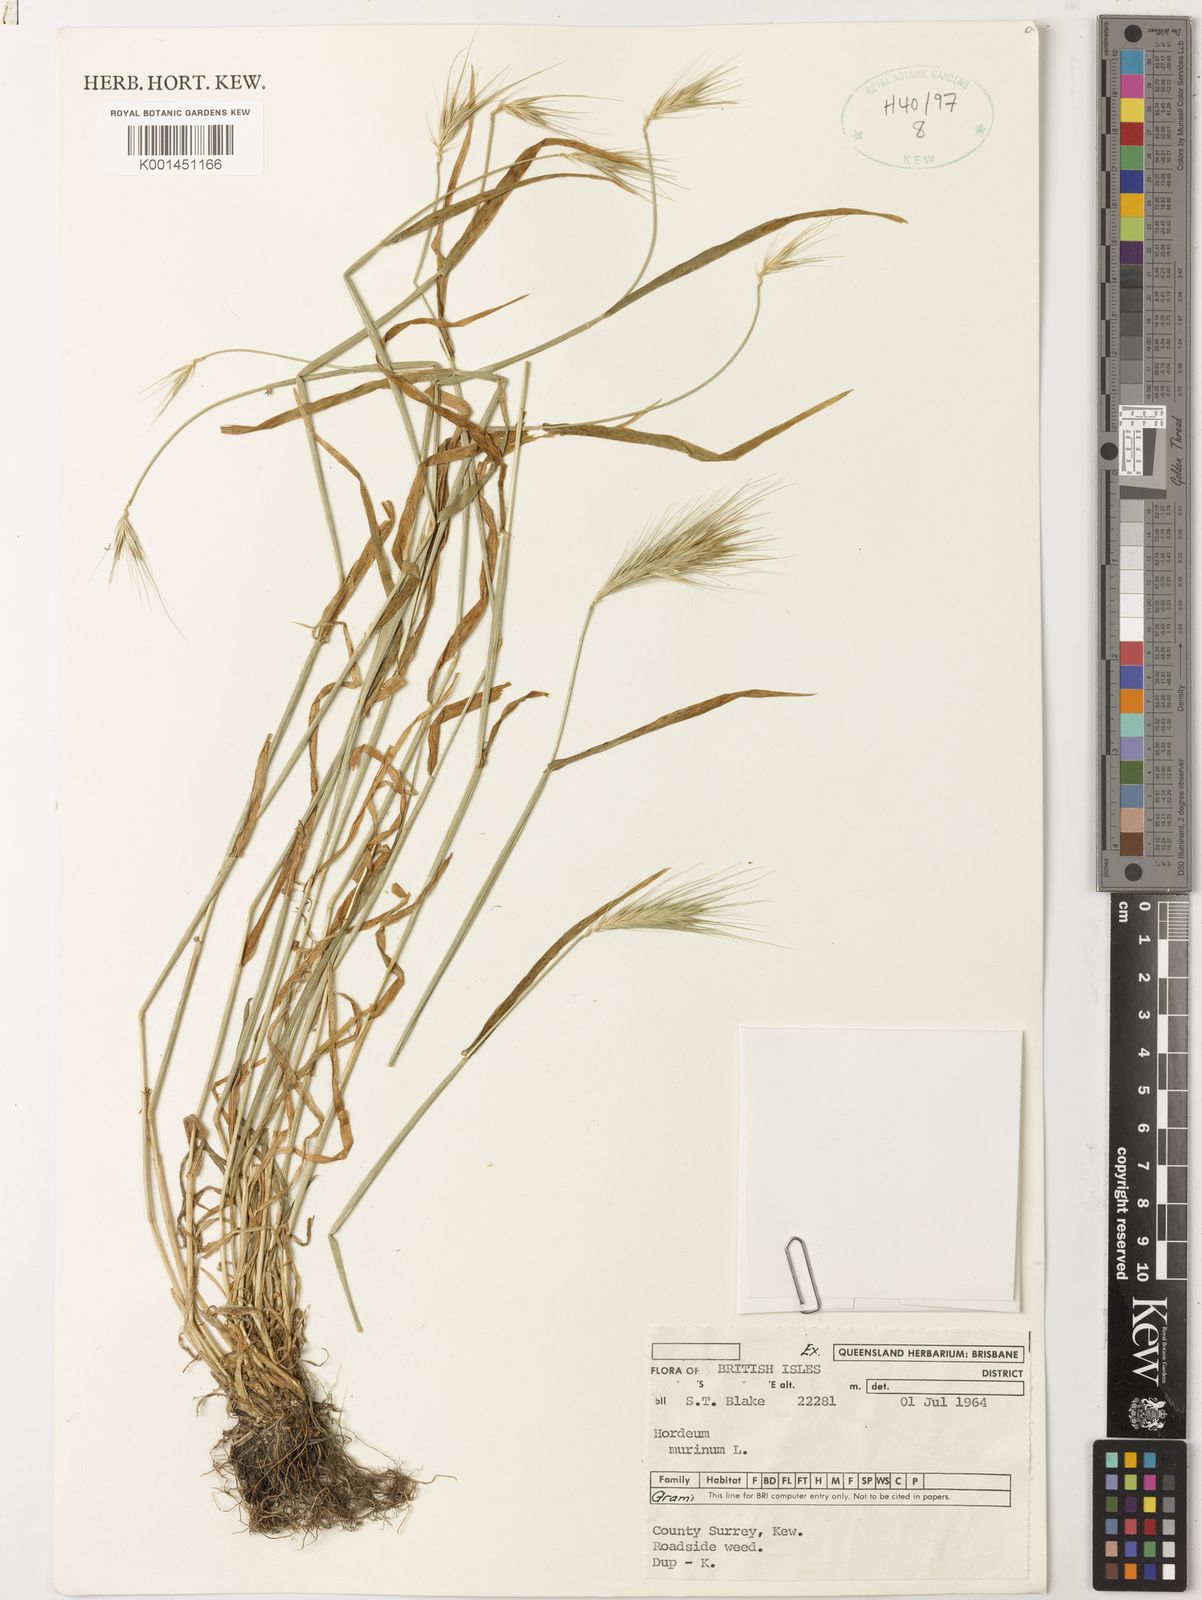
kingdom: Plantae
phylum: Tracheophyta
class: Liliopsida
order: Poales
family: Poaceae
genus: Hordeum
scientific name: Hordeum murinum
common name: Wall barley
